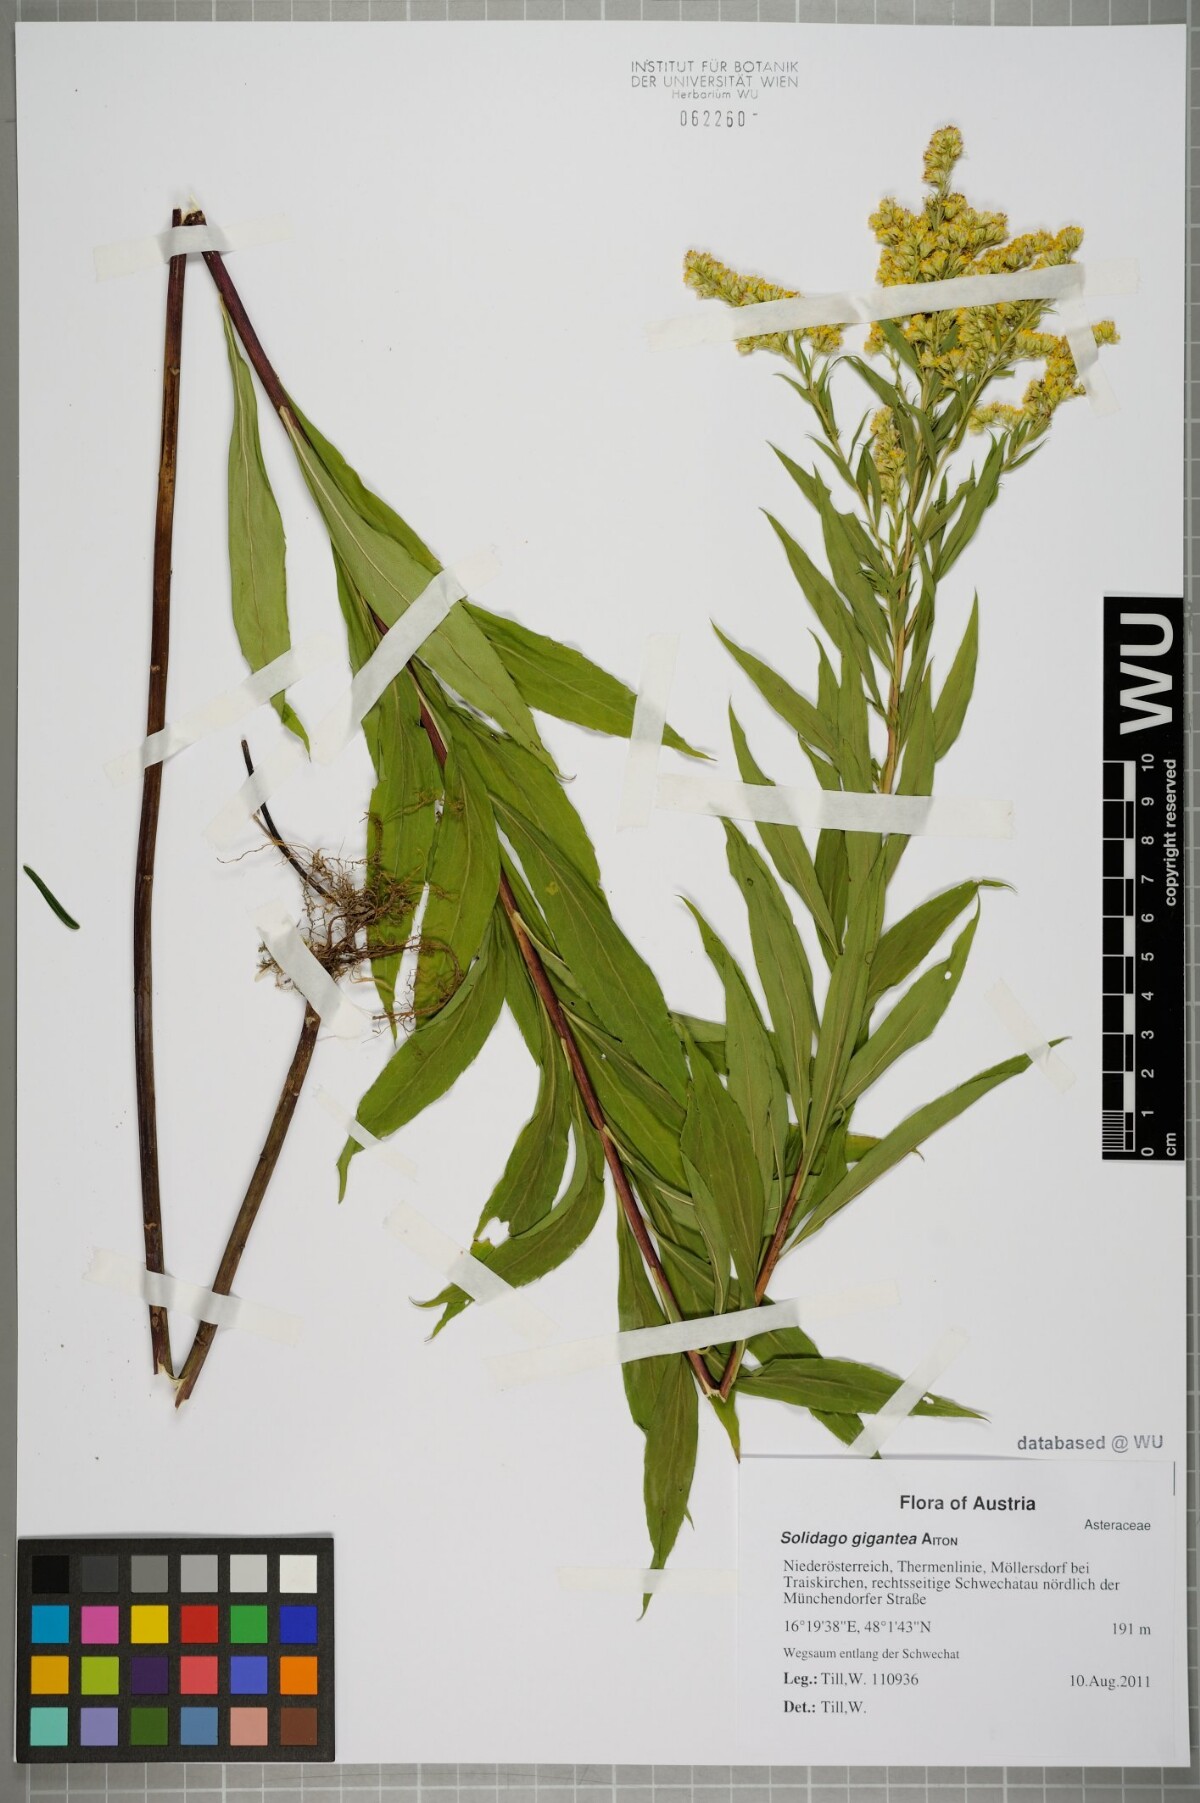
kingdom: Plantae
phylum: Tracheophyta
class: Magnoliopsida
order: Asterales
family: Asteraceae
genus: Solidago
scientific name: Solidago gigantea
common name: Giant goldenrod
